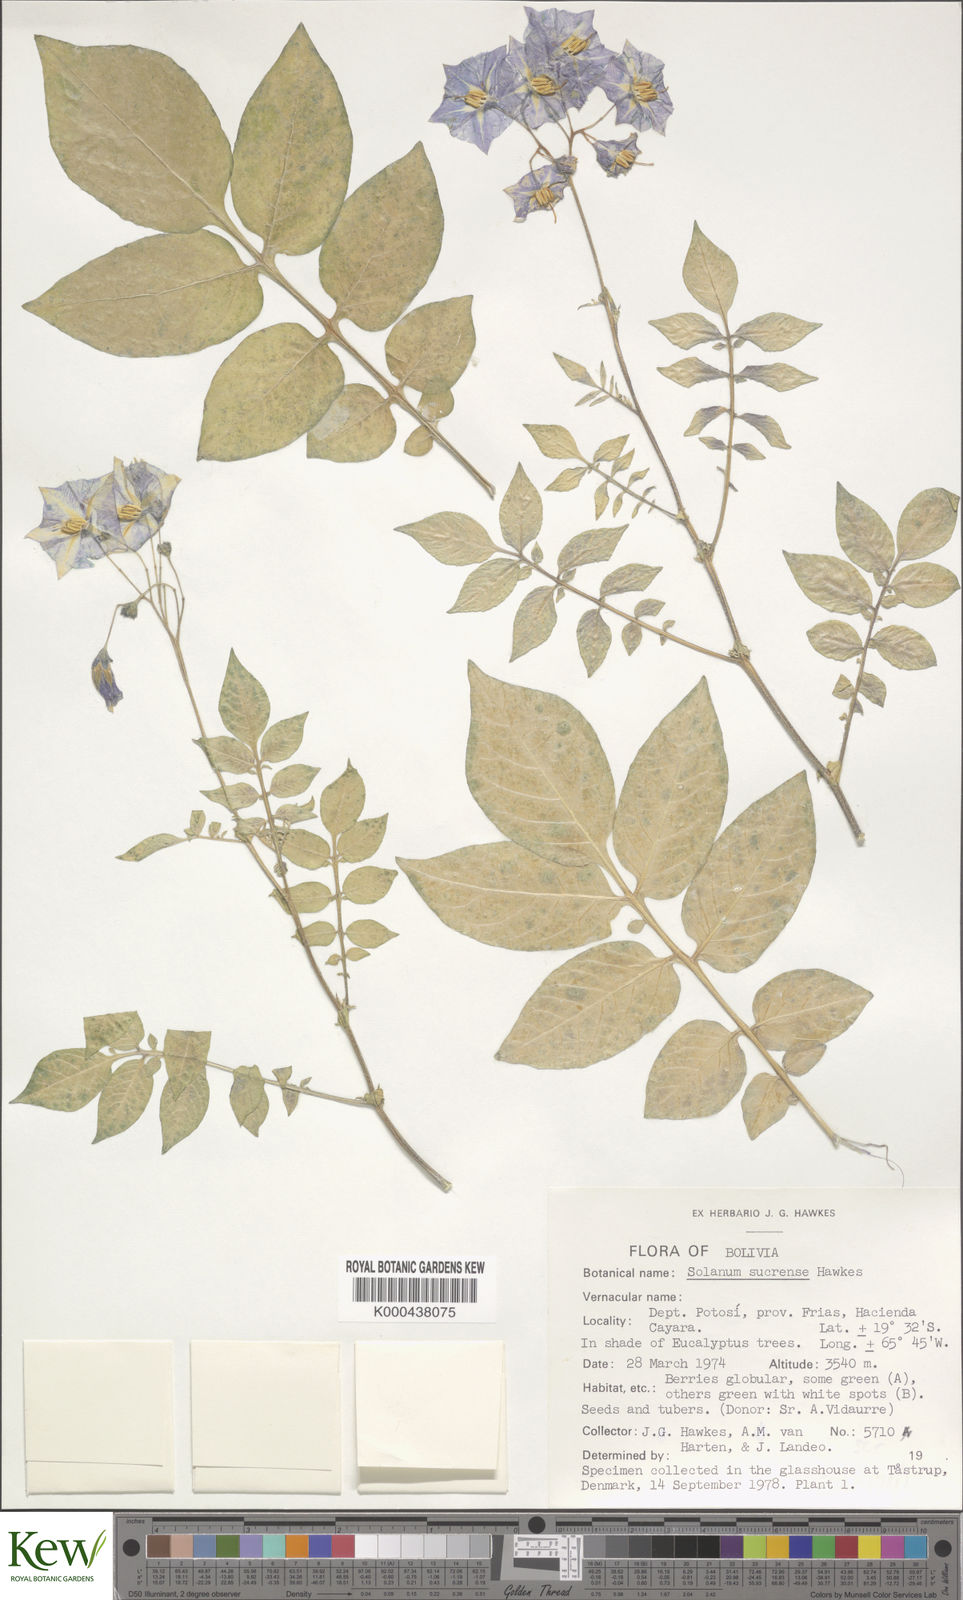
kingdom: Plantae
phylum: Tracheophyta
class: Magnoliopsida
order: Solanales
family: Solanaceae
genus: Solanum
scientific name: Solanum brevicaule
